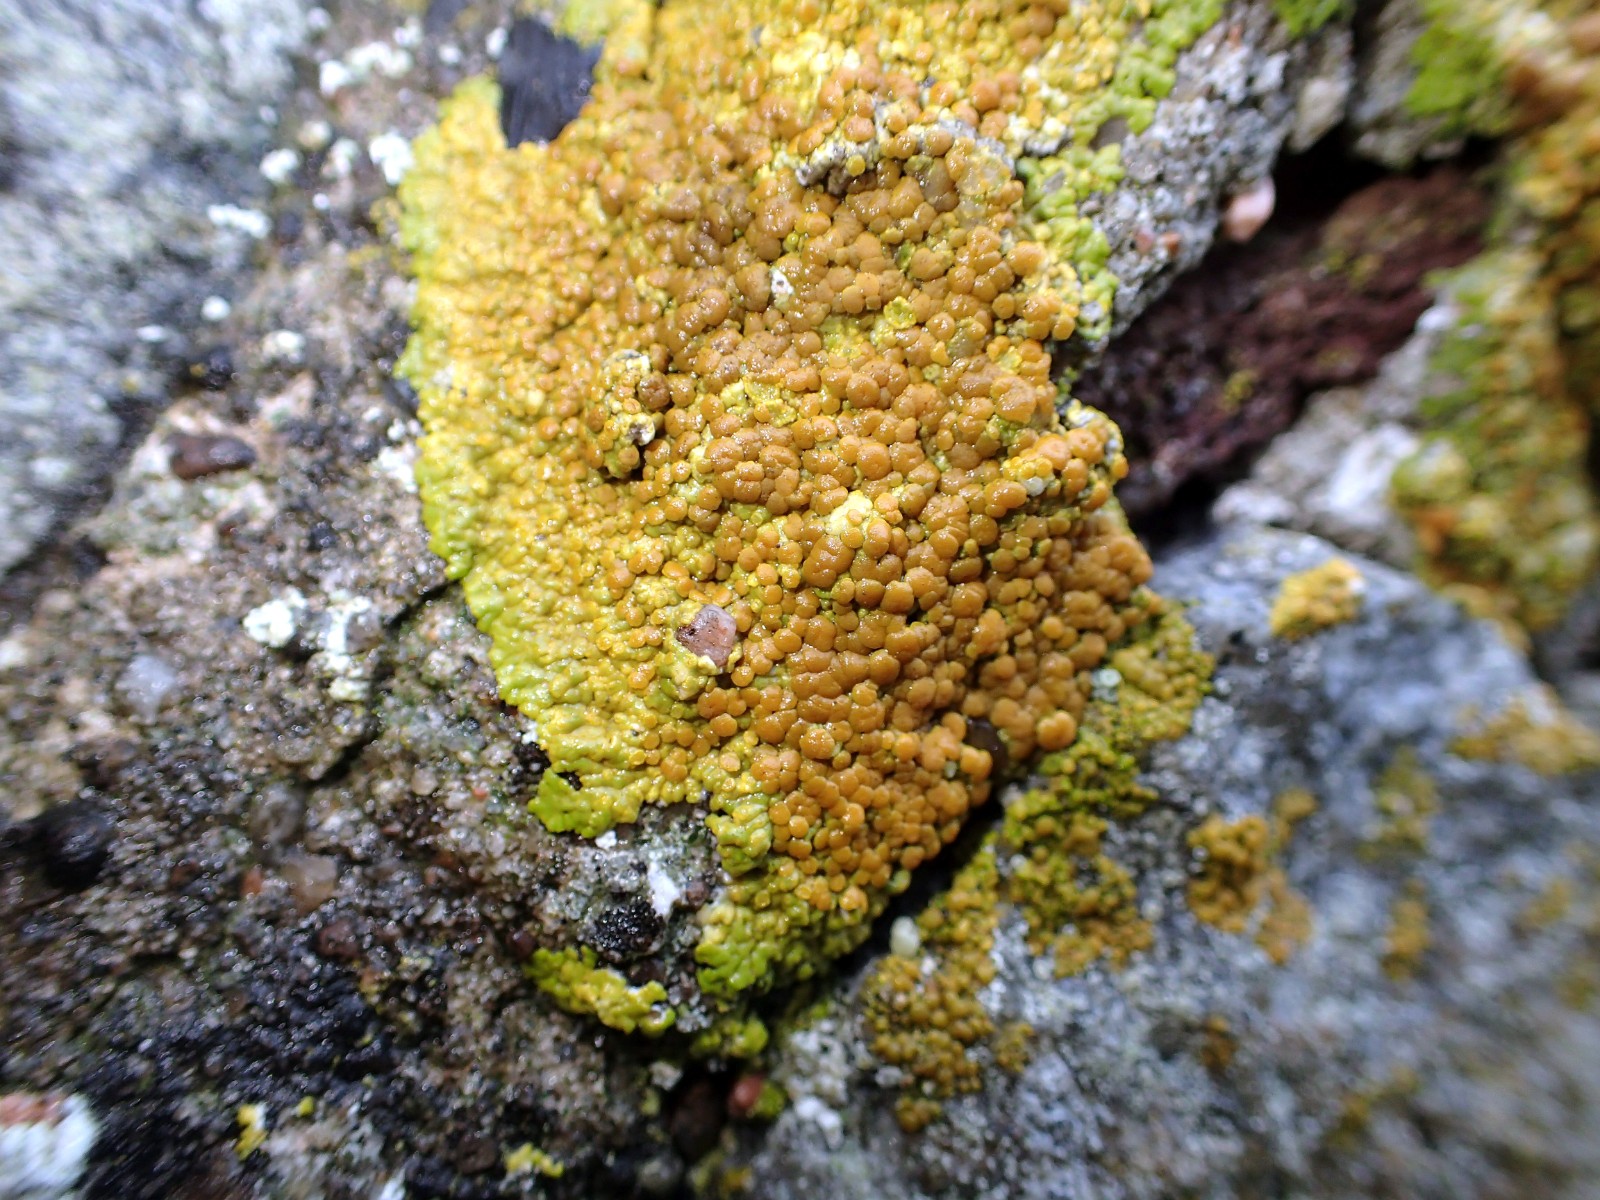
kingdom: Fungi
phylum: Ascomycota
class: Lecanoromycetes
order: Teloschistales
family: Teloschistaceae
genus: Variospora
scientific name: Variospora flavescens
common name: kalk-orangelav
